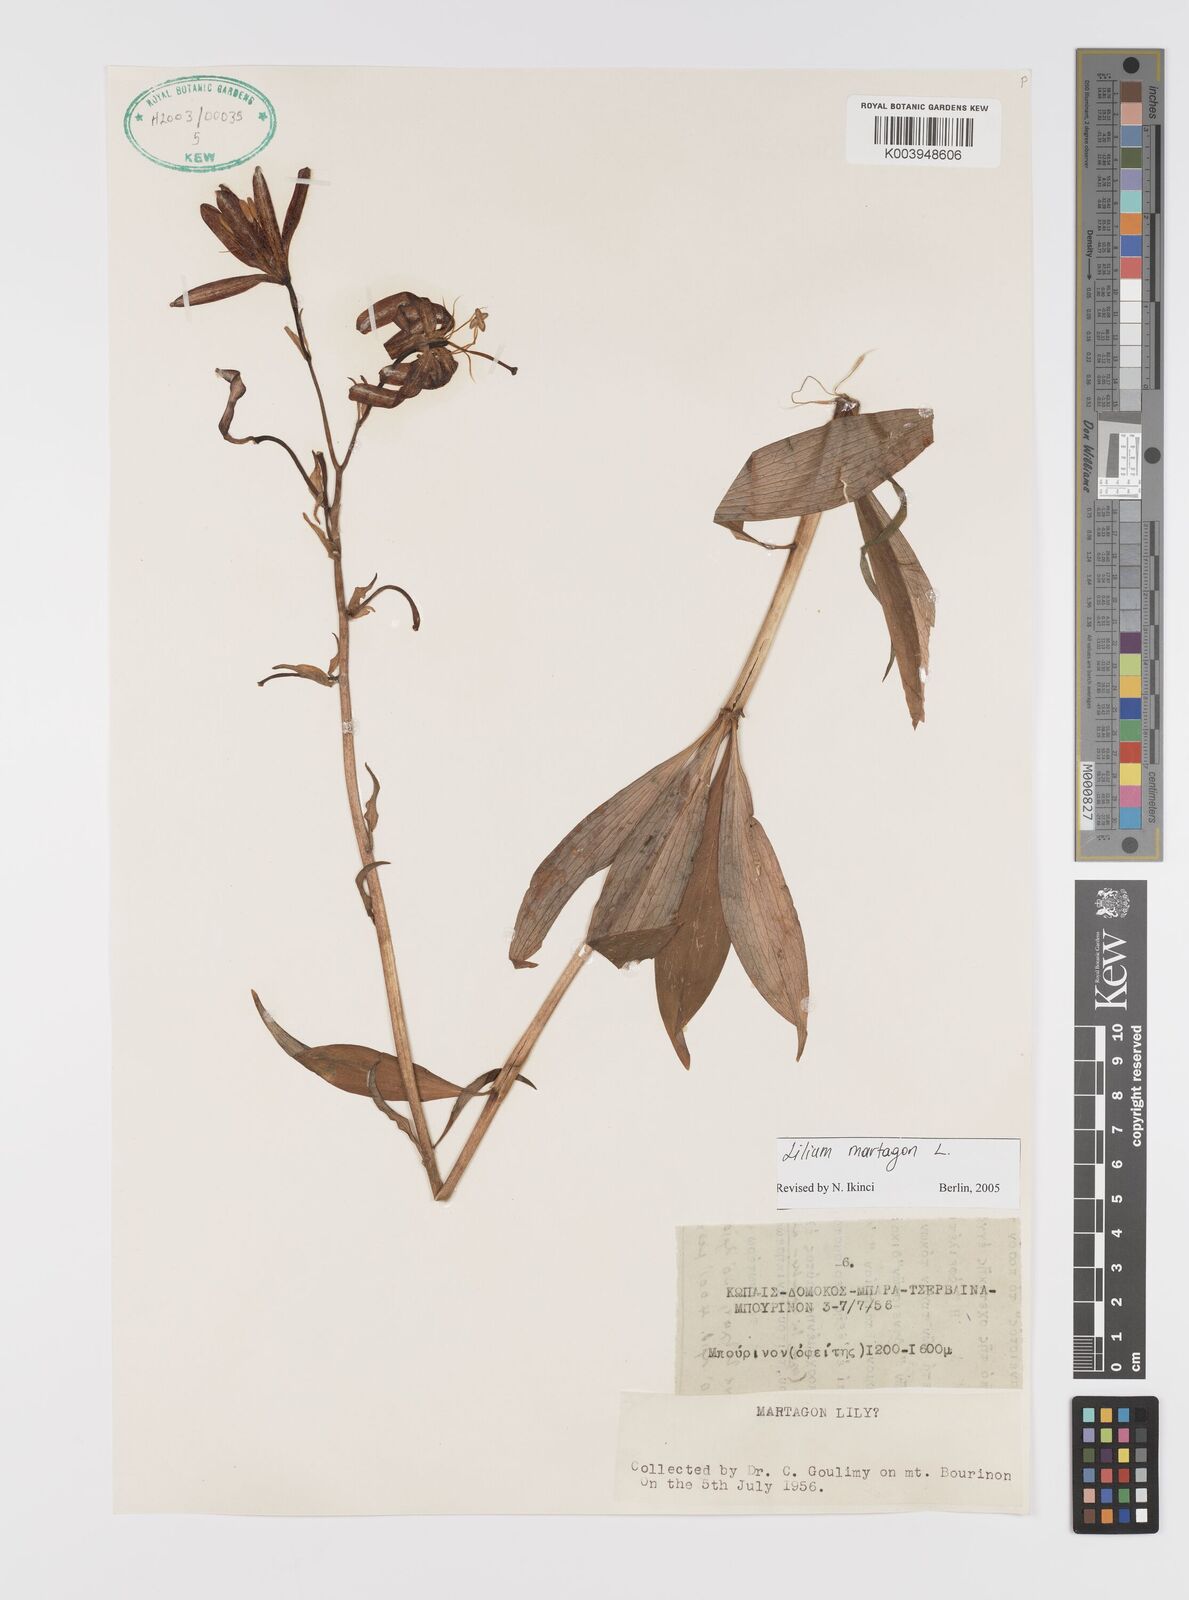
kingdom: Plantae
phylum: Tracheophyta
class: Liliopsida
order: Liliales
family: Liliaceae
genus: Lilium
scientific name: Lilium martagon
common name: Martagon lily
